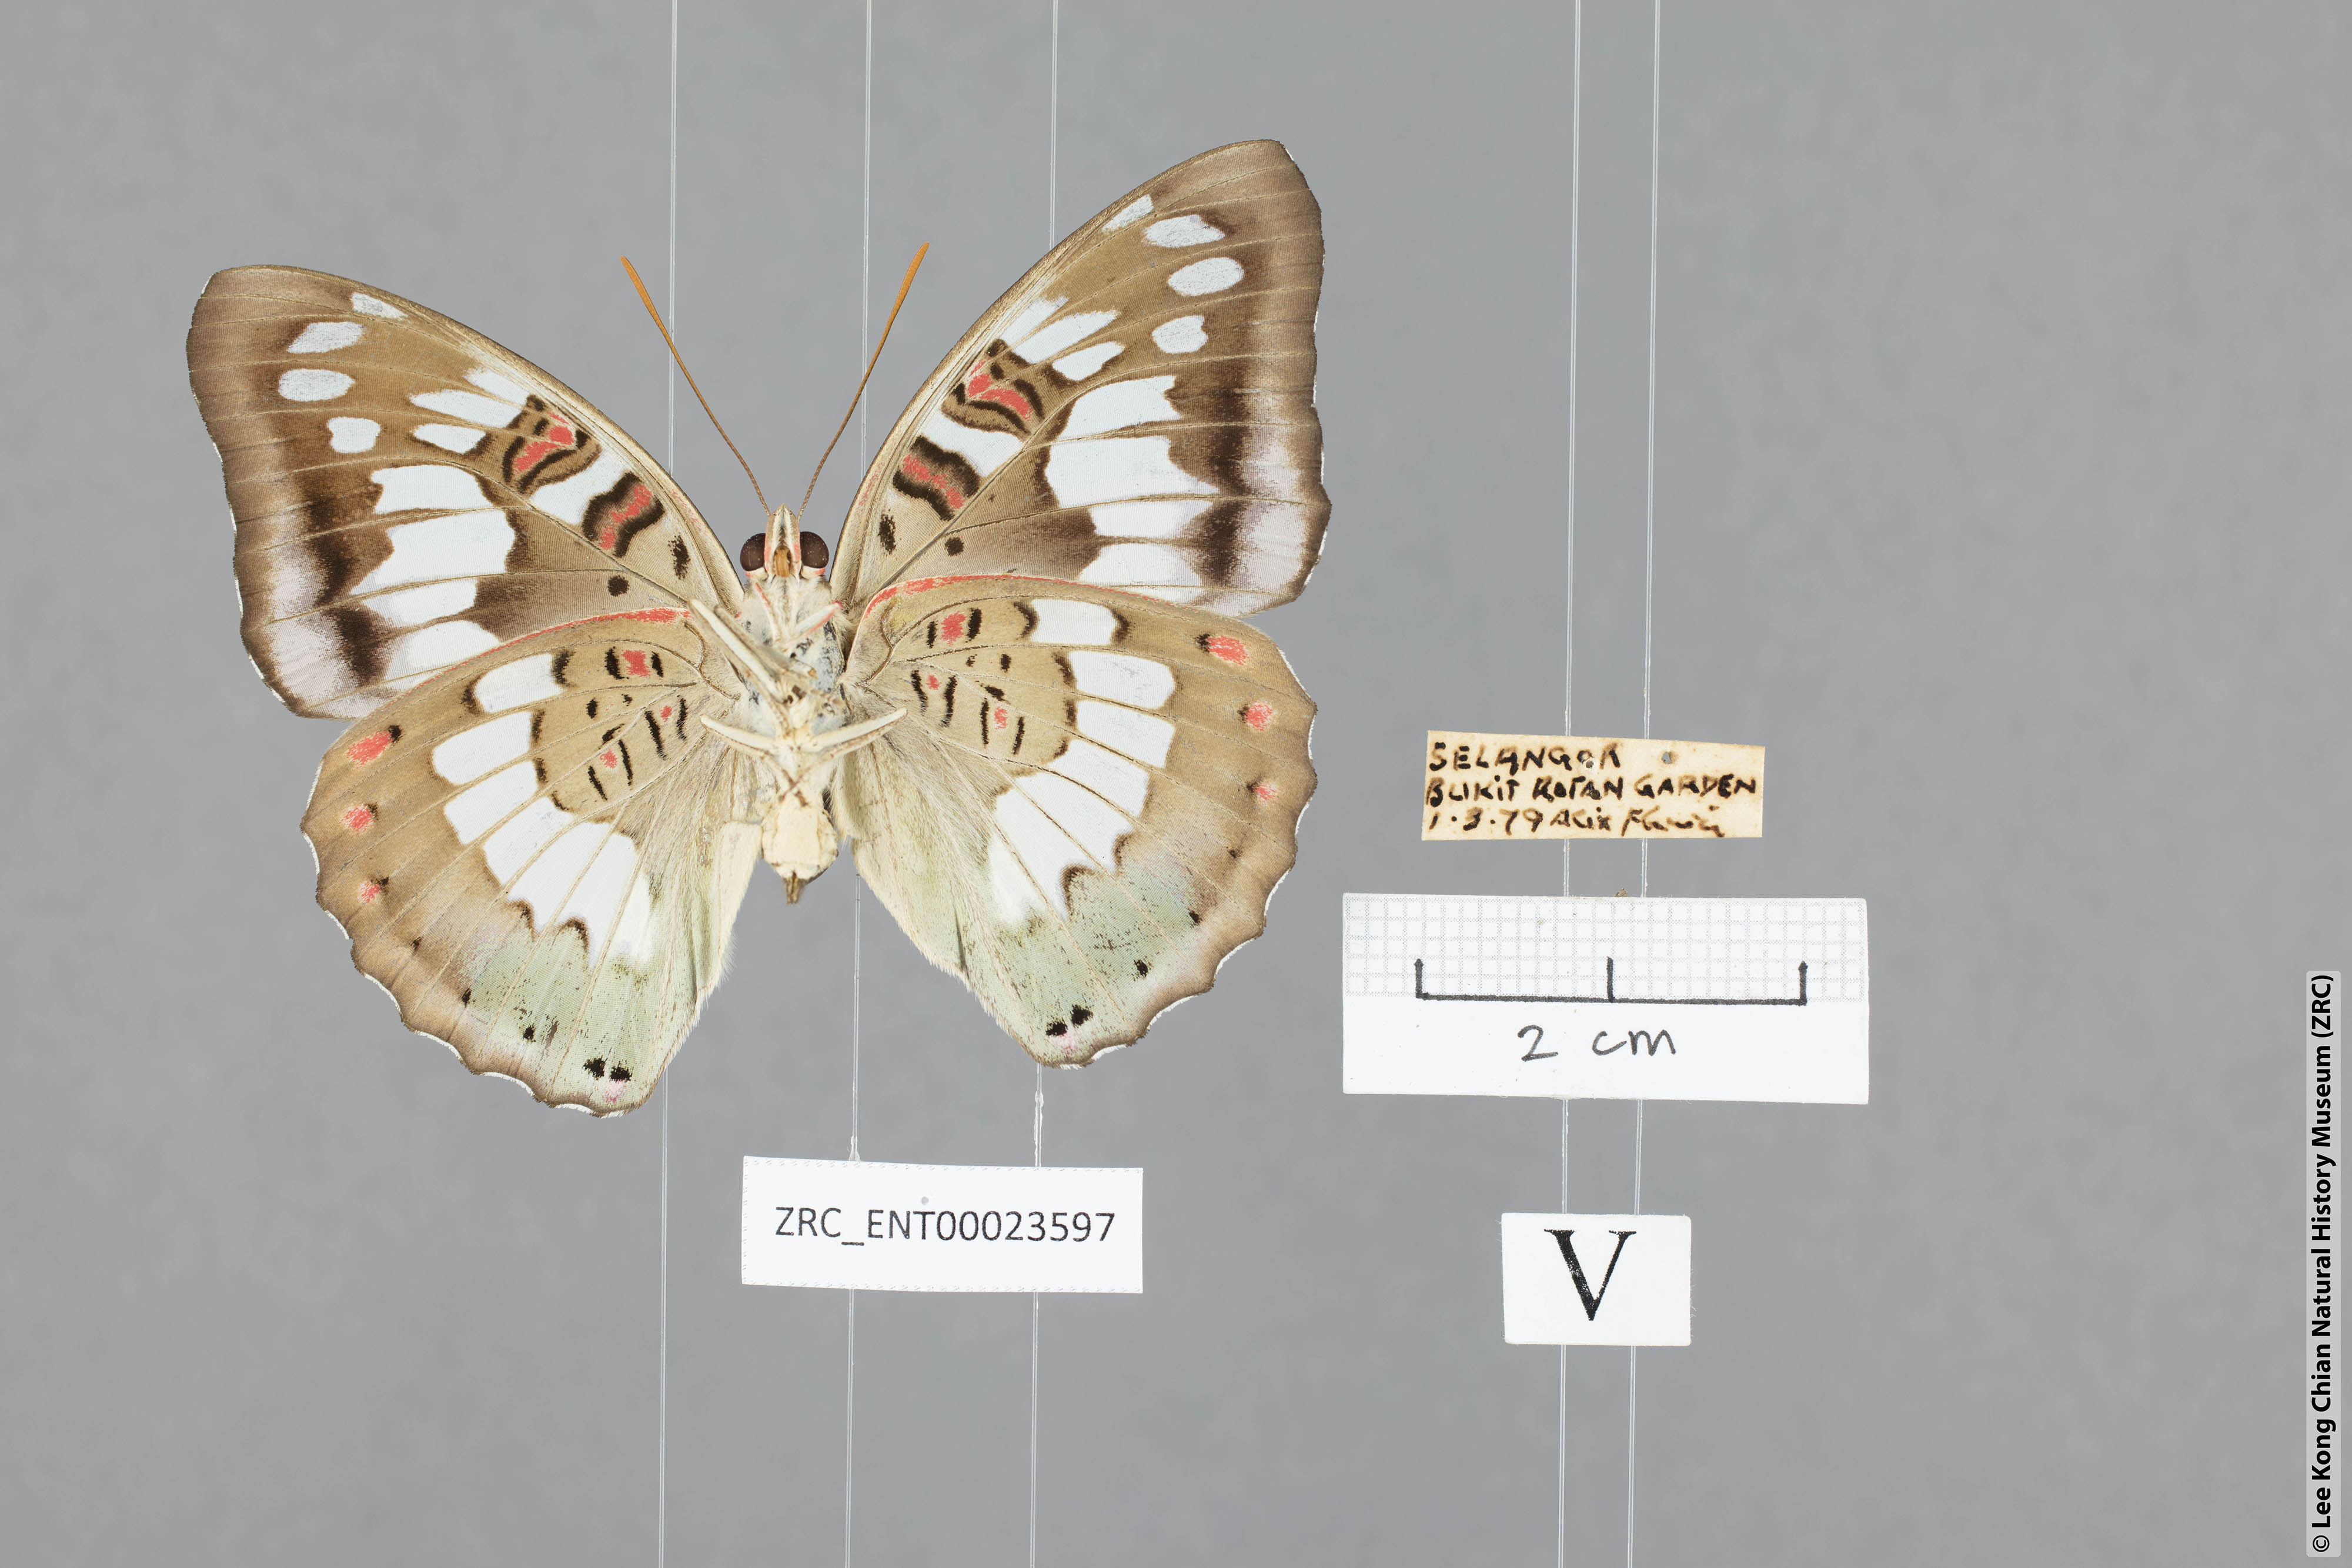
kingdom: Animalia
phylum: Arthropoda
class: Insecta
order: Lepidoptera
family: Nymphalidae
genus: Euthalia
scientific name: Euthalia adonia
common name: Green baron
